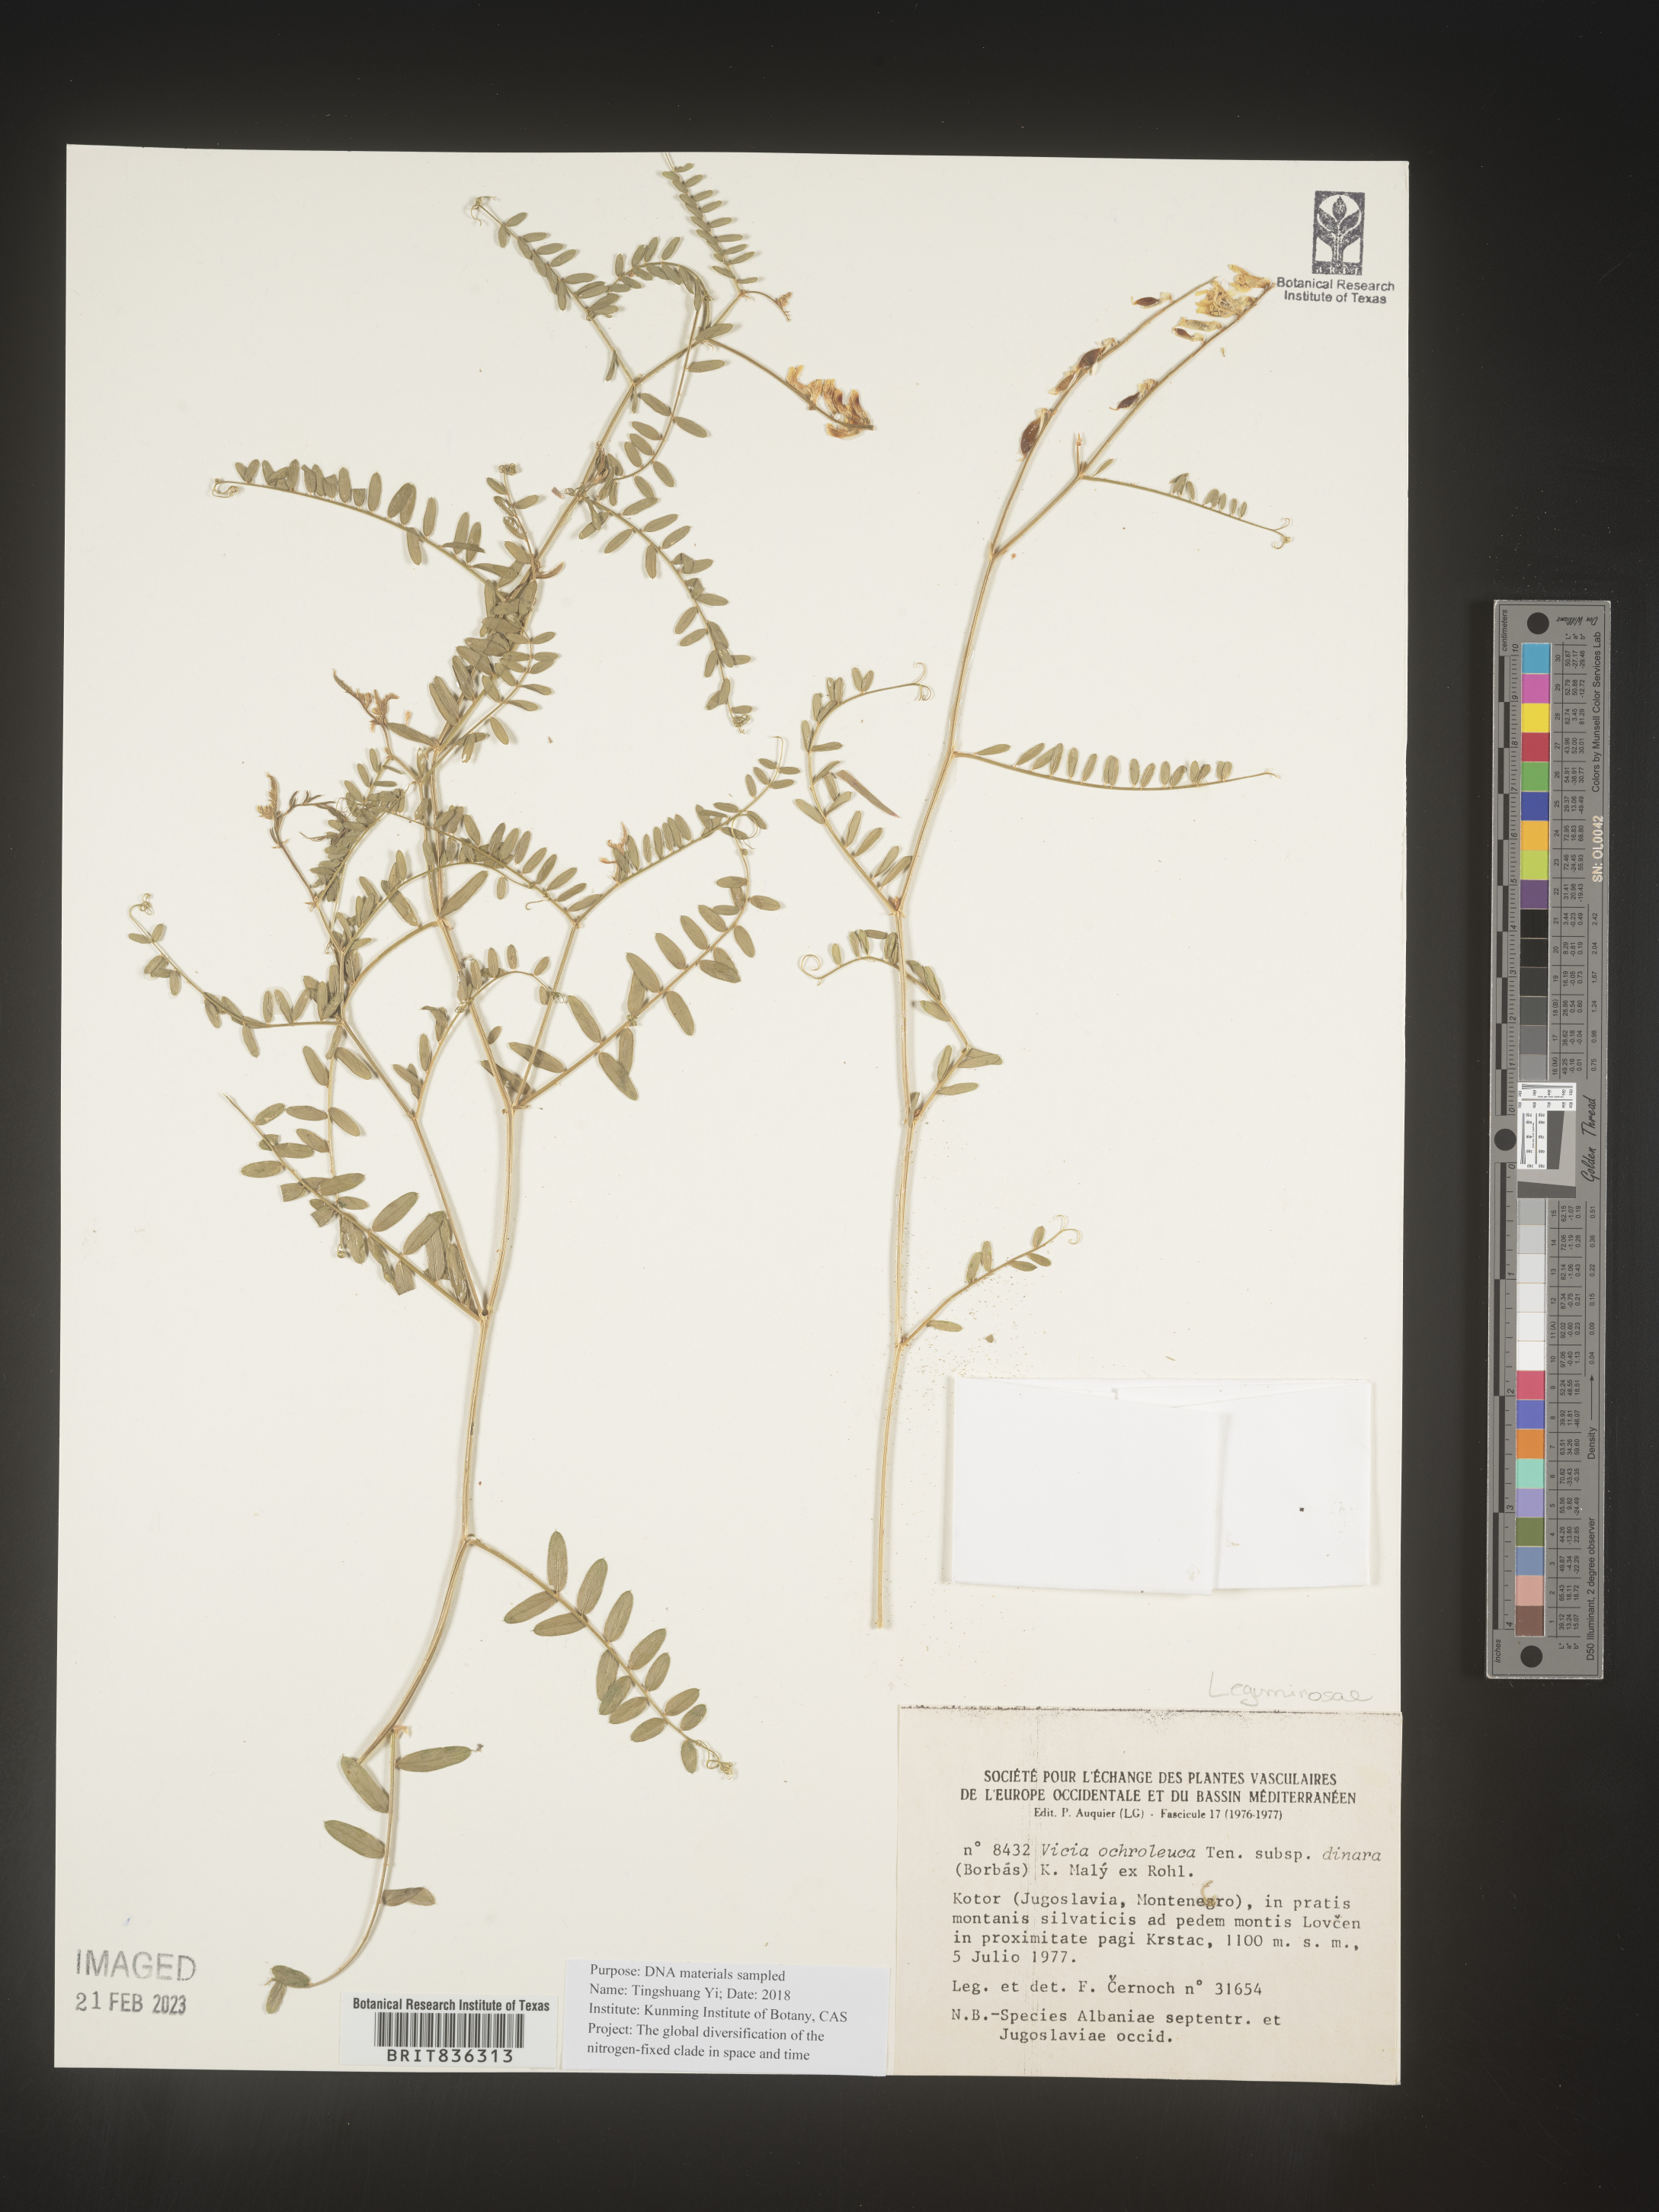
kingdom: Plantae
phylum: Tracheophyta
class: Magnoliopsida
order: Fabales
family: Fabaceae
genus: Vicia
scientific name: Vicia
